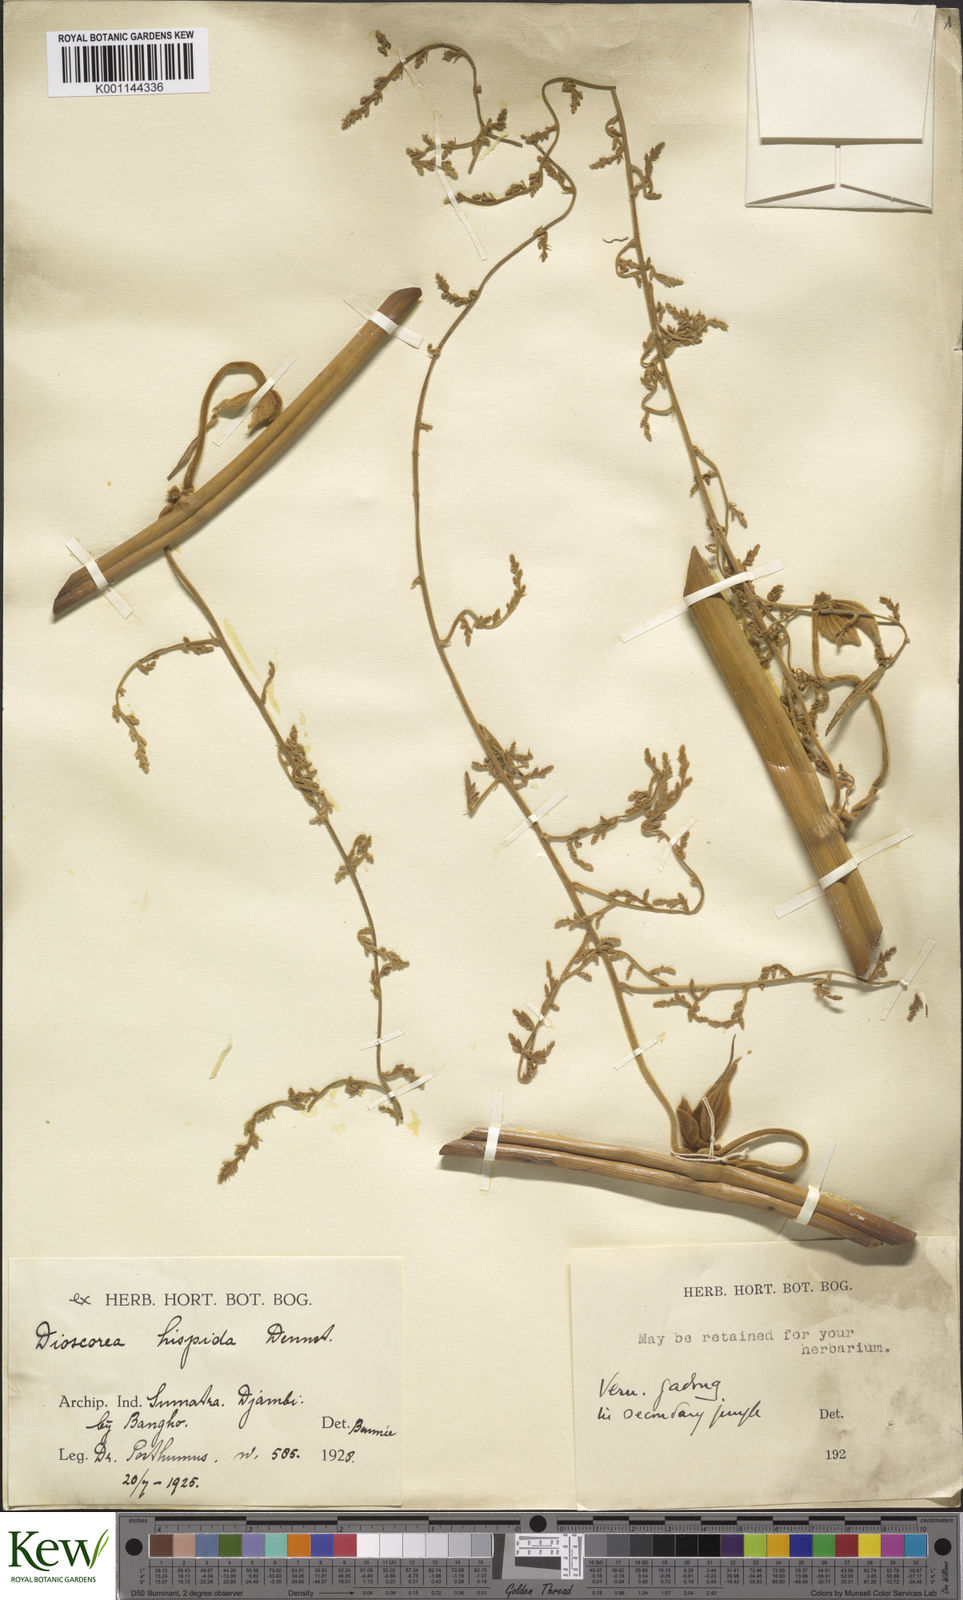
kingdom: Plantae
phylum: Tracheophyta
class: Liliopsida
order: Dioscoreales
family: Dioscoreaceae
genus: Dioscorea
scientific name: Dioscorea hispida
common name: Asiatic bitter yam
